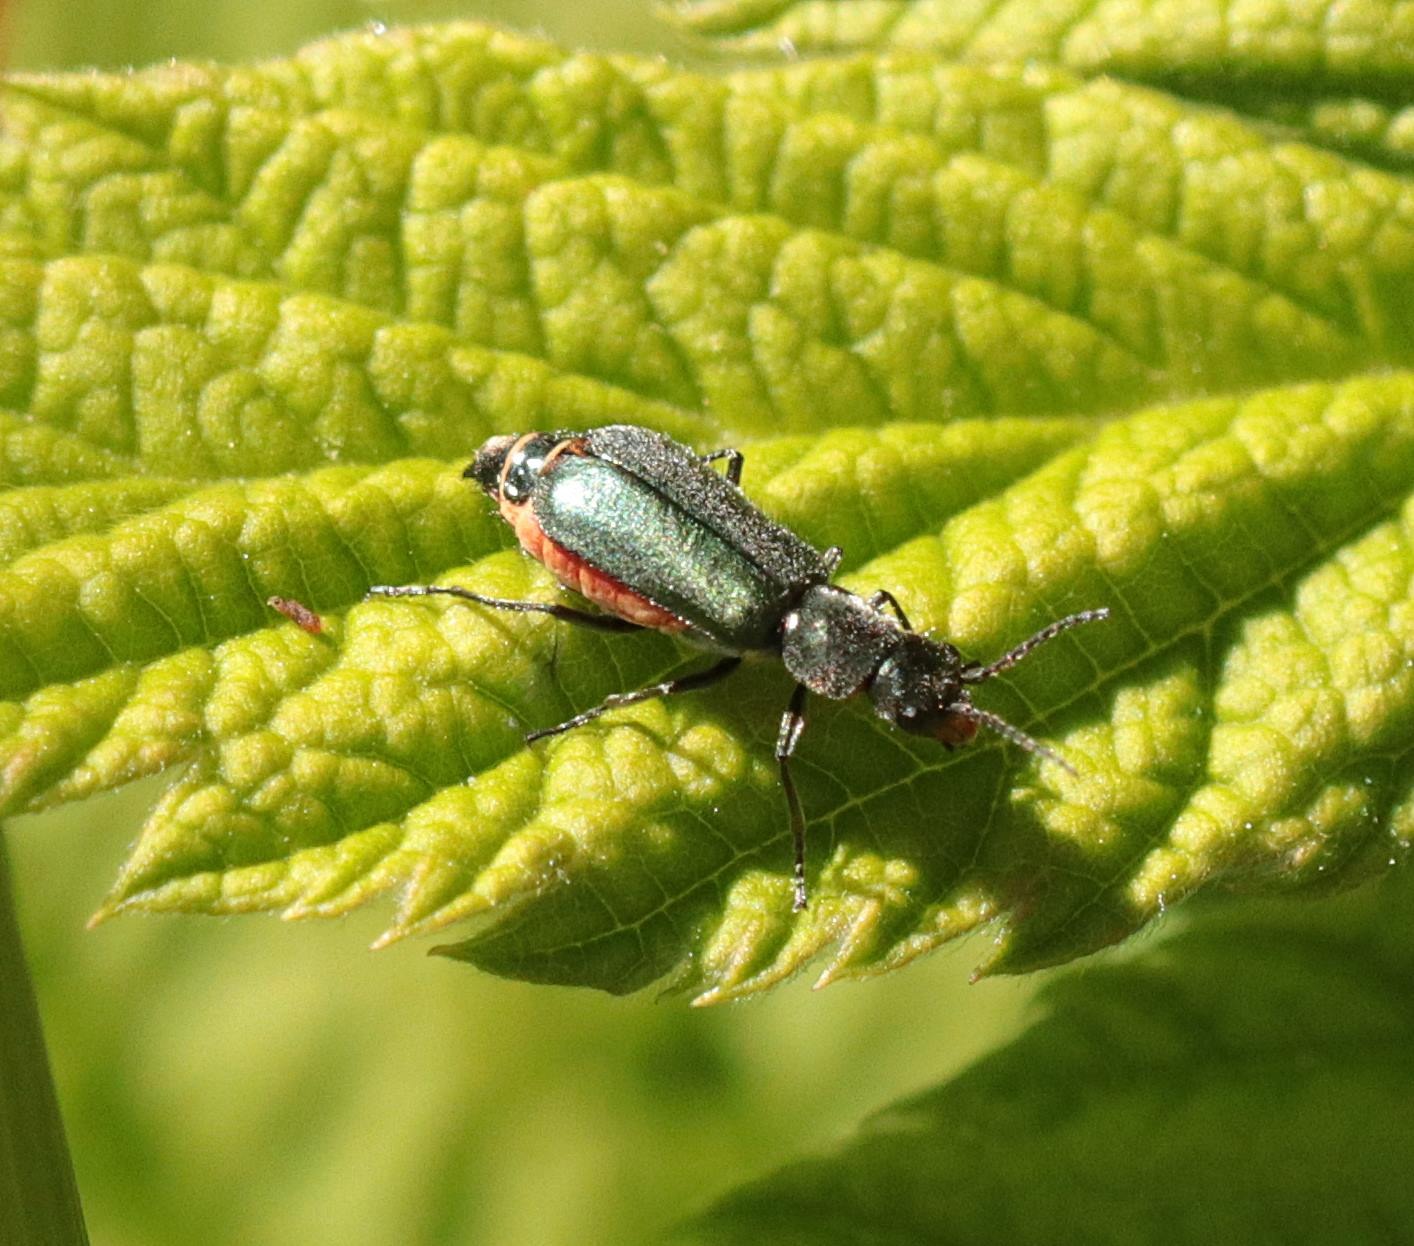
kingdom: Animalia
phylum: Arthropoda
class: Insecta
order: Coleoptera
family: Malachiidae
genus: Cordylepherus
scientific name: Cordylepherus viridis
